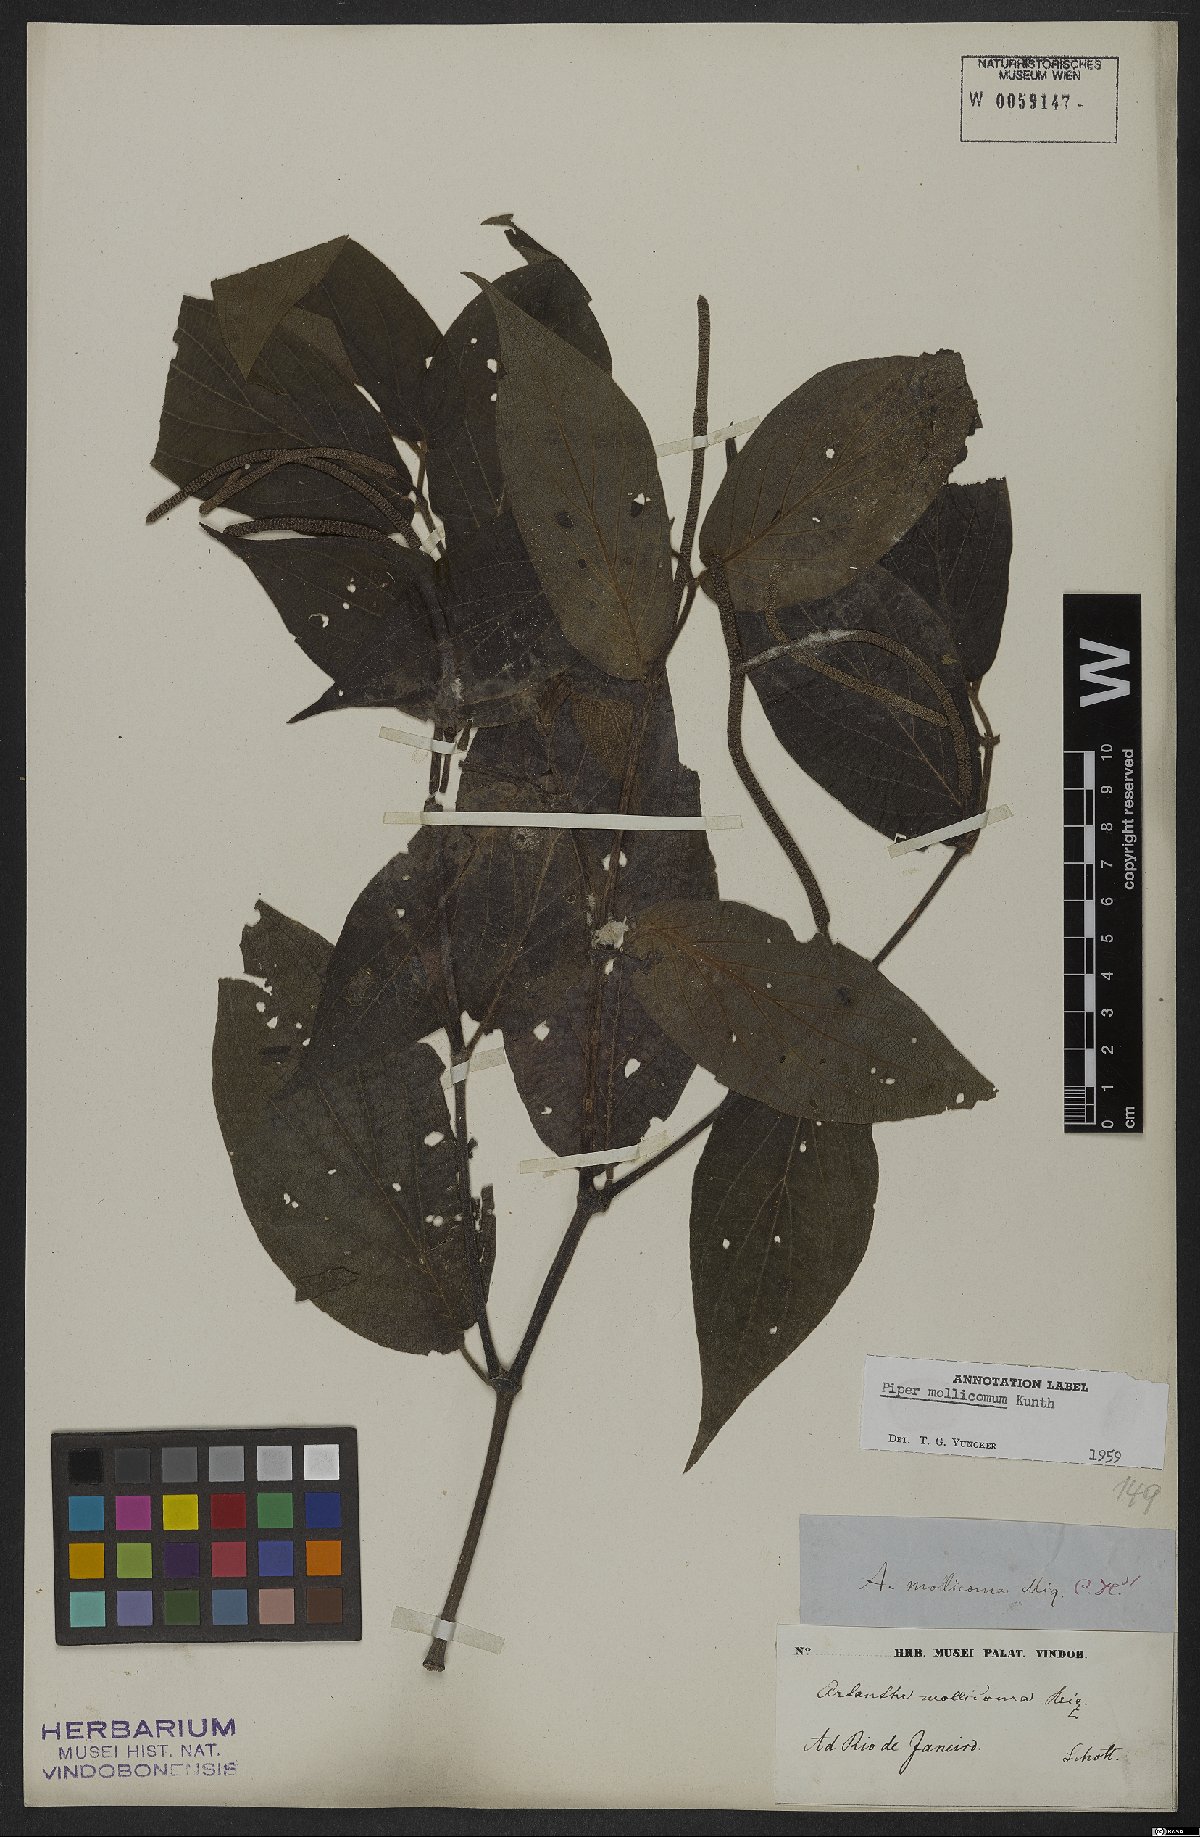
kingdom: Plantae
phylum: Tracheophyta
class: Magnoliopsida
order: Piperales
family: Piperaceae
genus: Piper
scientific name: Piper mollicomum
